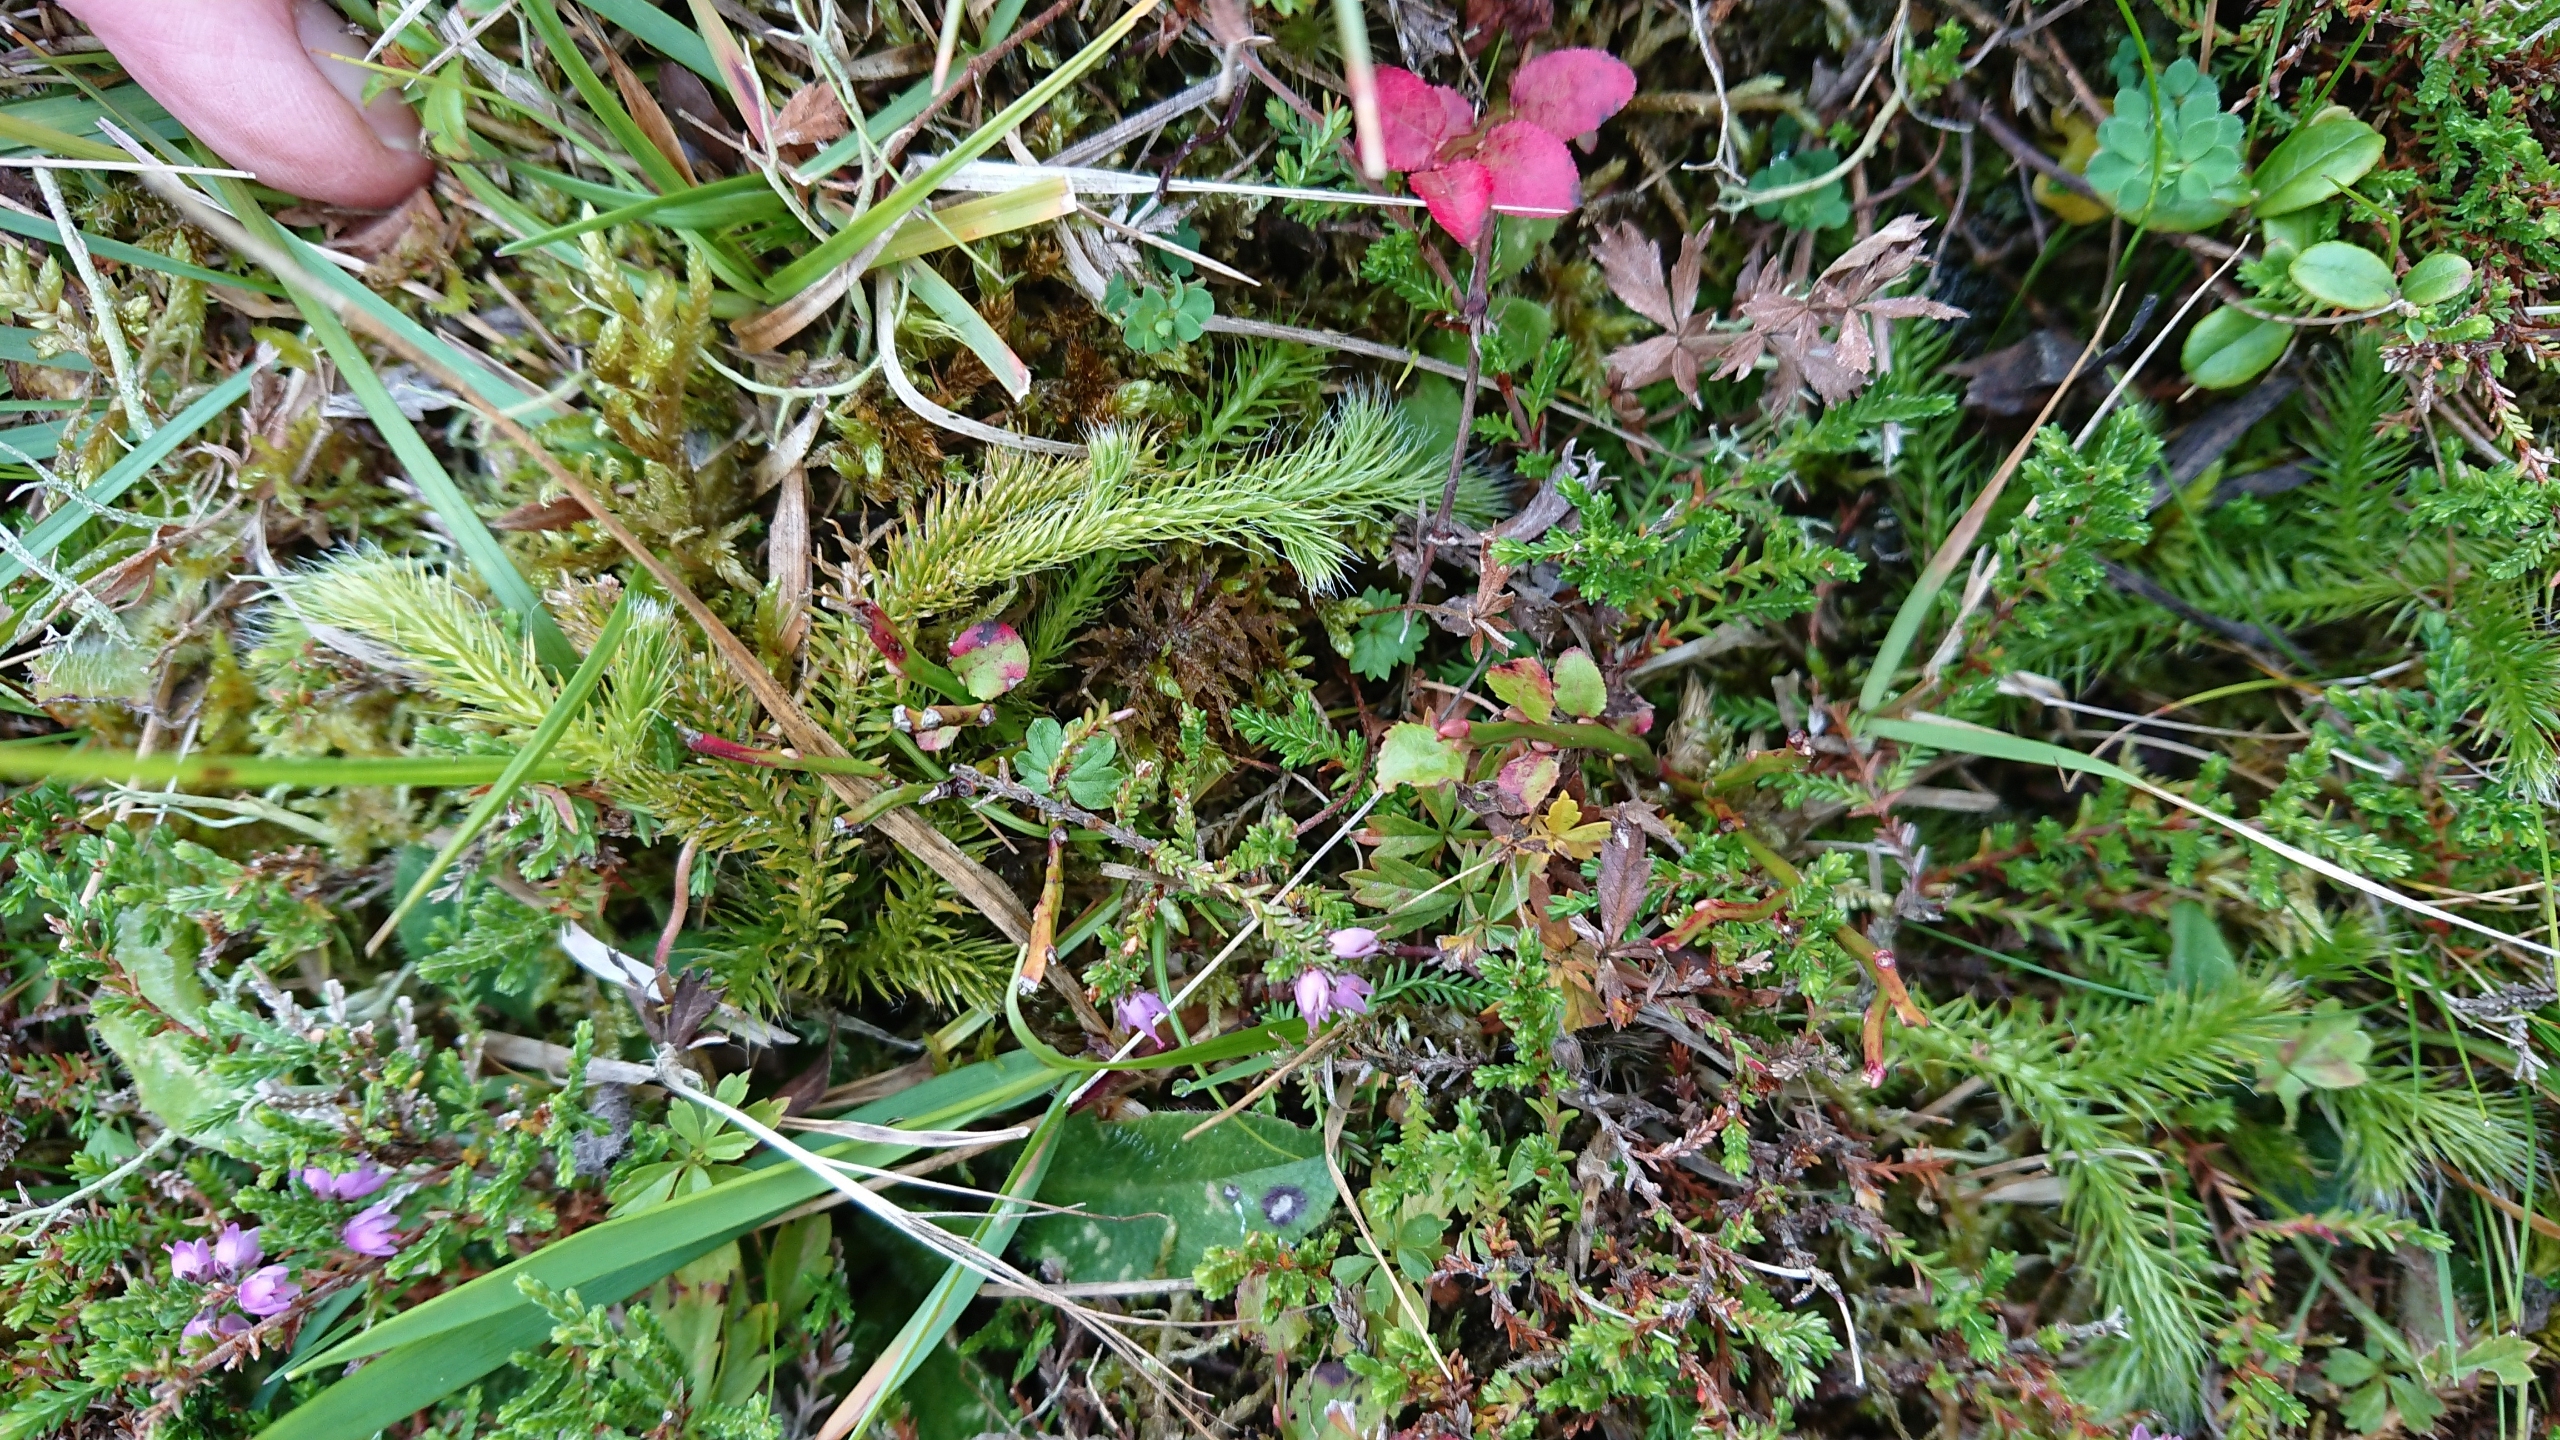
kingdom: Plantae
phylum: Tracheophyta
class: Lycopodiopsida
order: Lycopodiales
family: Lycopodiaceae
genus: Lycopodium
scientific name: Lycopodium clavatum
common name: Almindelig ulvefod
